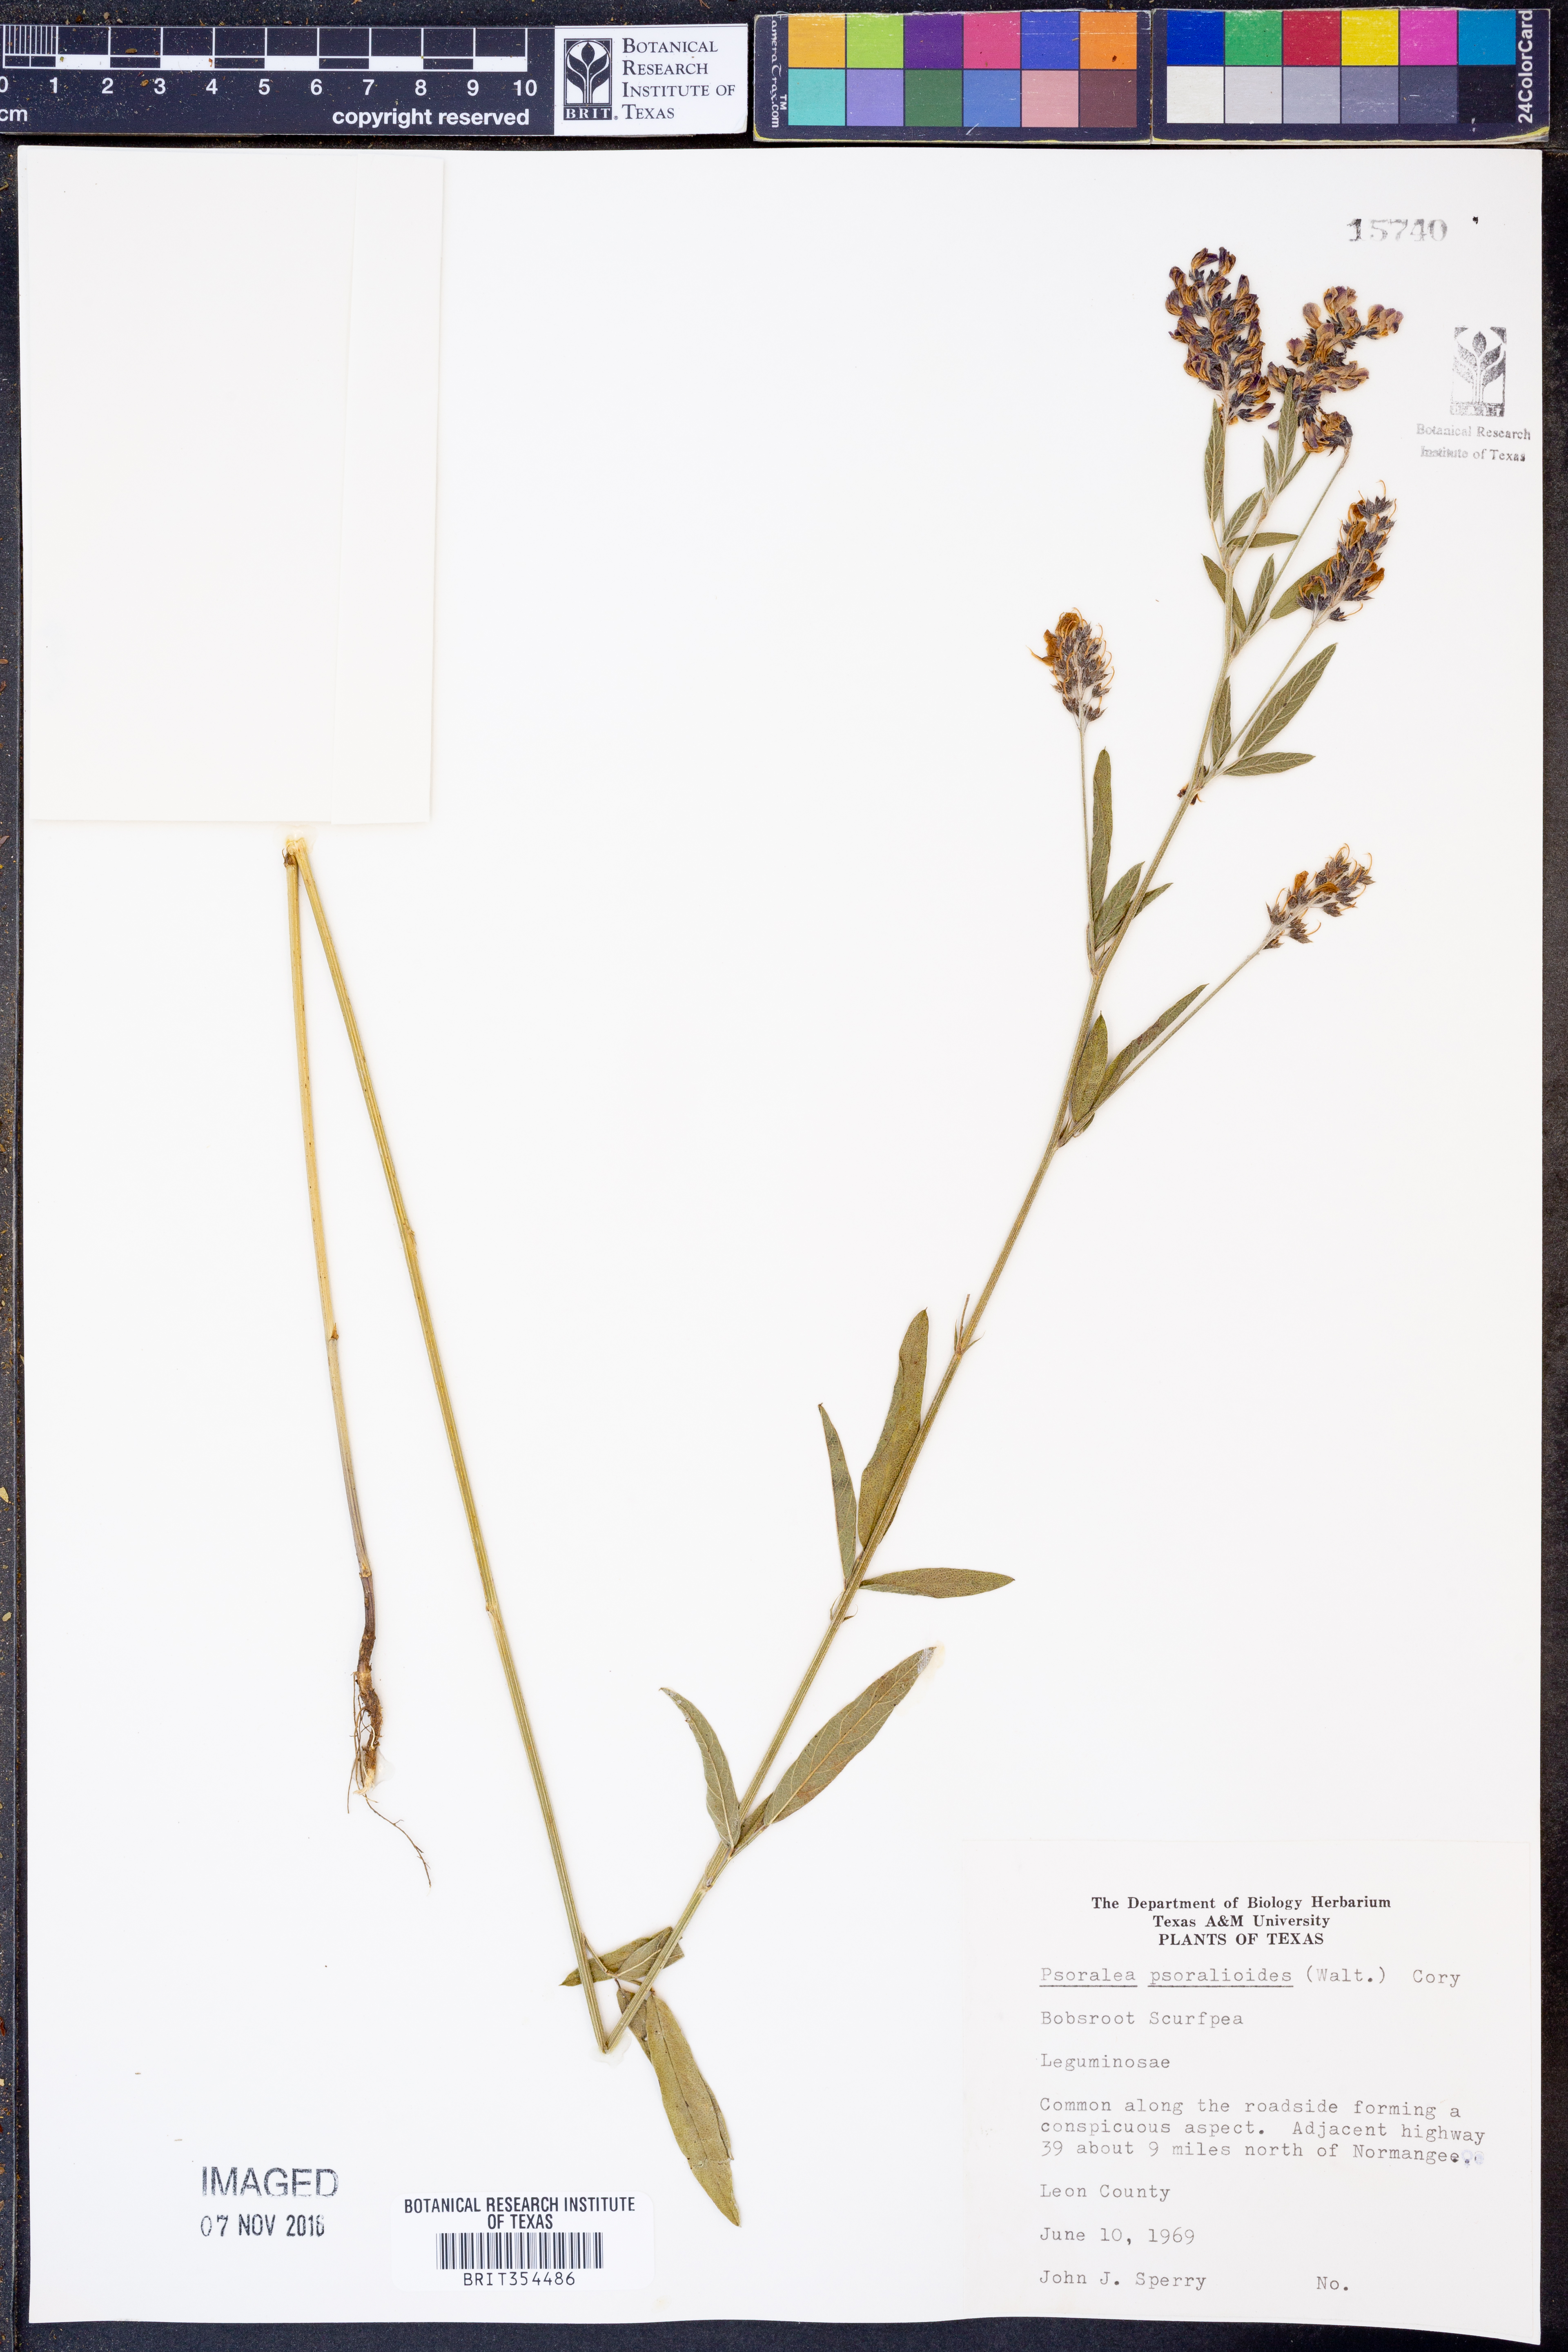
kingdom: Plantae
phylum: Tracheophyta
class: Magnoliopsida
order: Fabales
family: Fabaceae
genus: Orbexilum
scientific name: Orbexilum psoralioides
